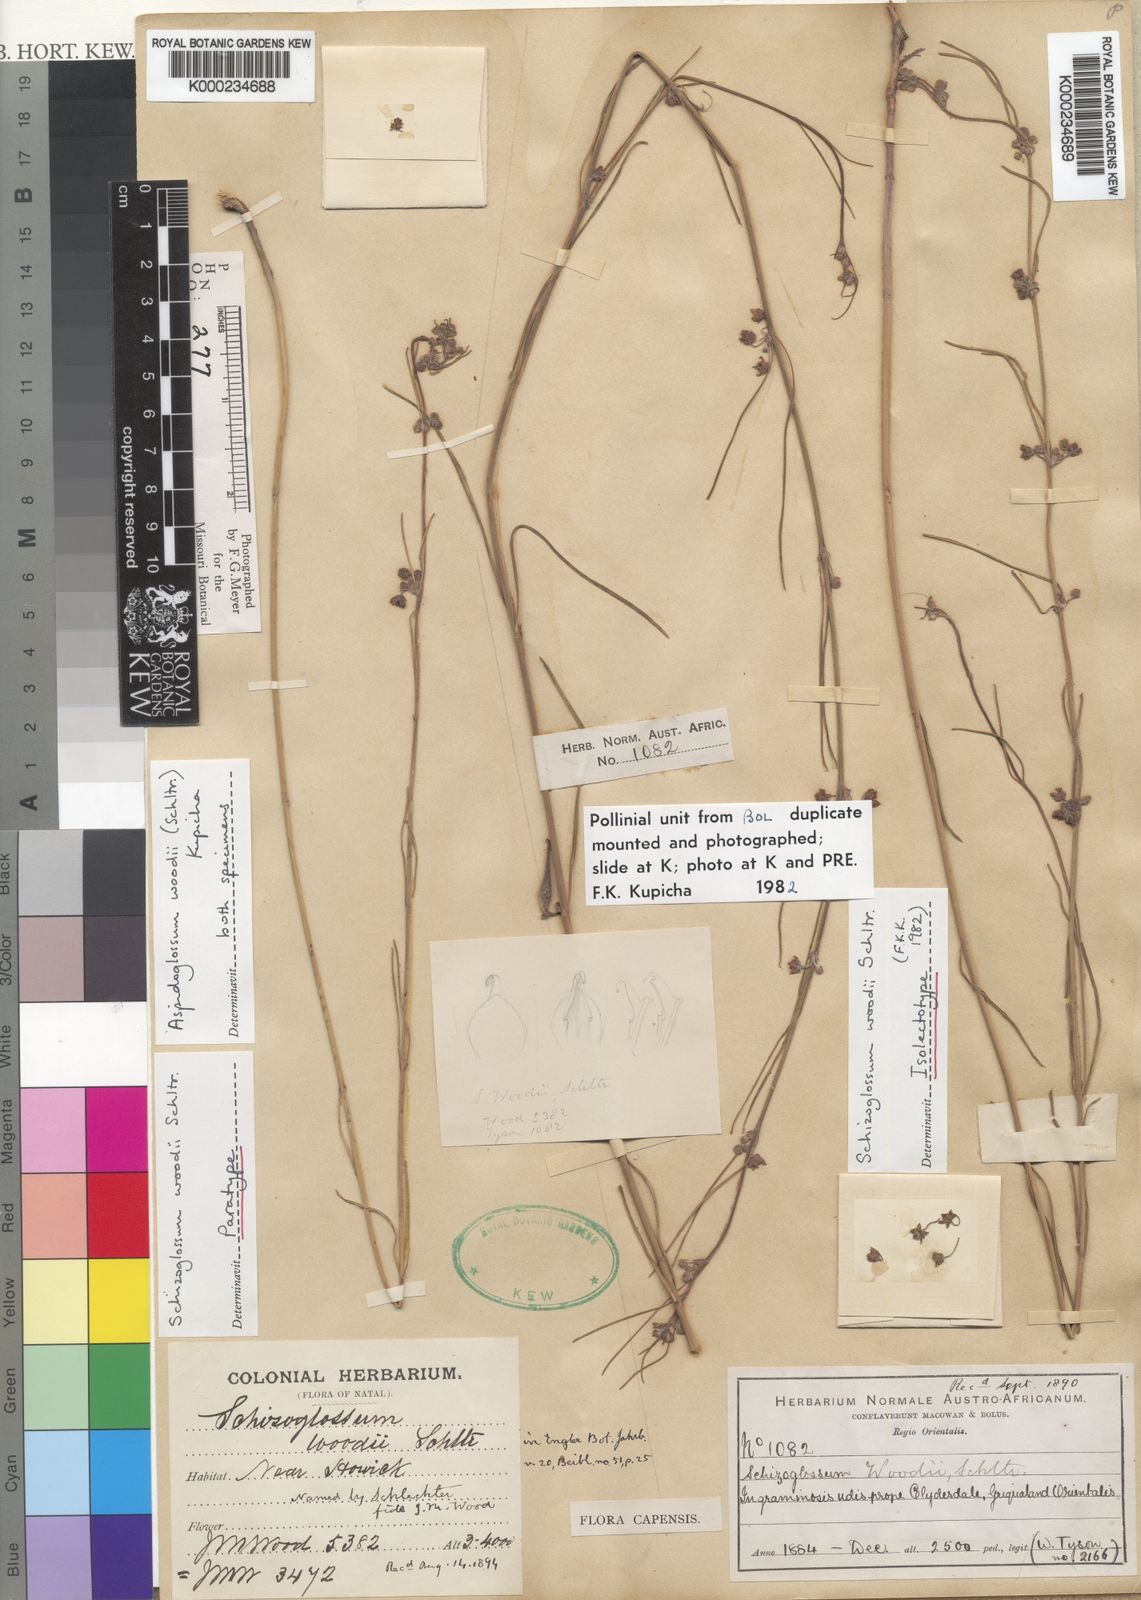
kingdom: Plantae
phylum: Tracheophyta
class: Magnoliopsida
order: Gentianales
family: Apocynaceae
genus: Aspidoglossum
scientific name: Aspidoglossum woodii
